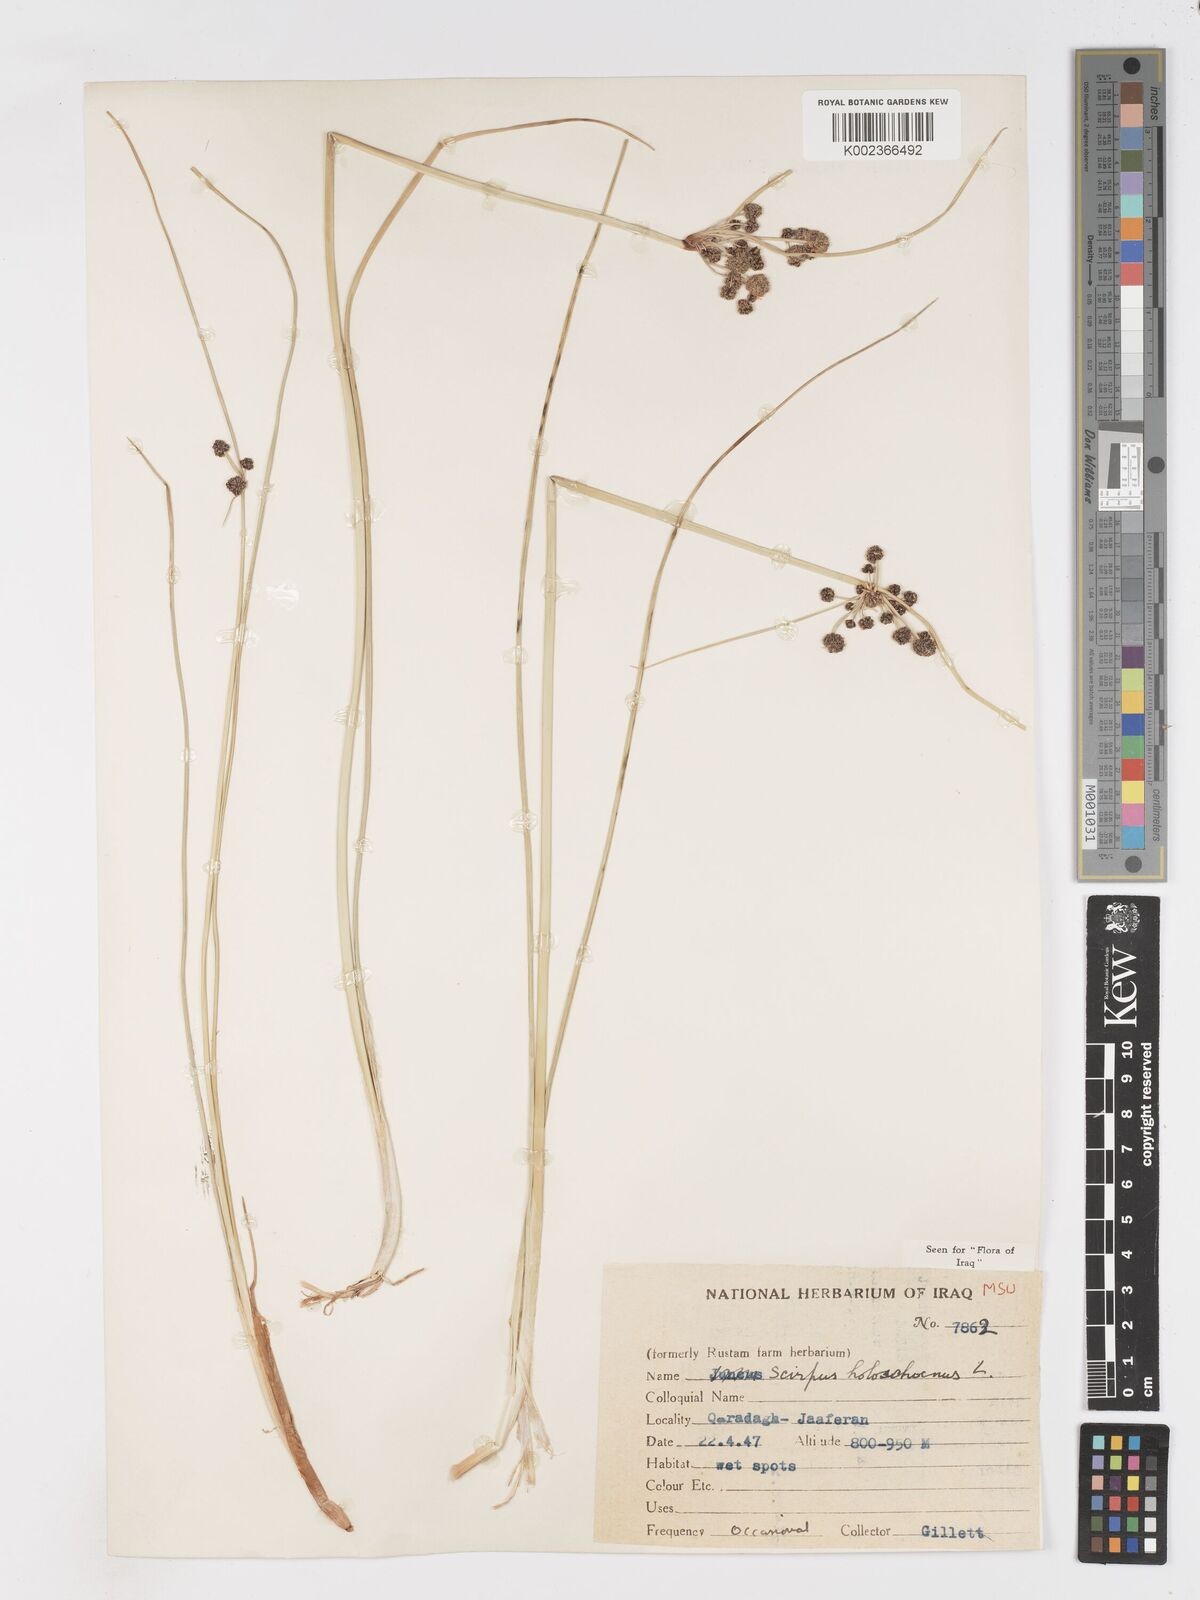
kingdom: Plantae
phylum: Tracheophyta
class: Liliopsida
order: Poales
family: Cyperaceae
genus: Scirpoides
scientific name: Scirpoides holoschoenus
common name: Round-headed club-rush
